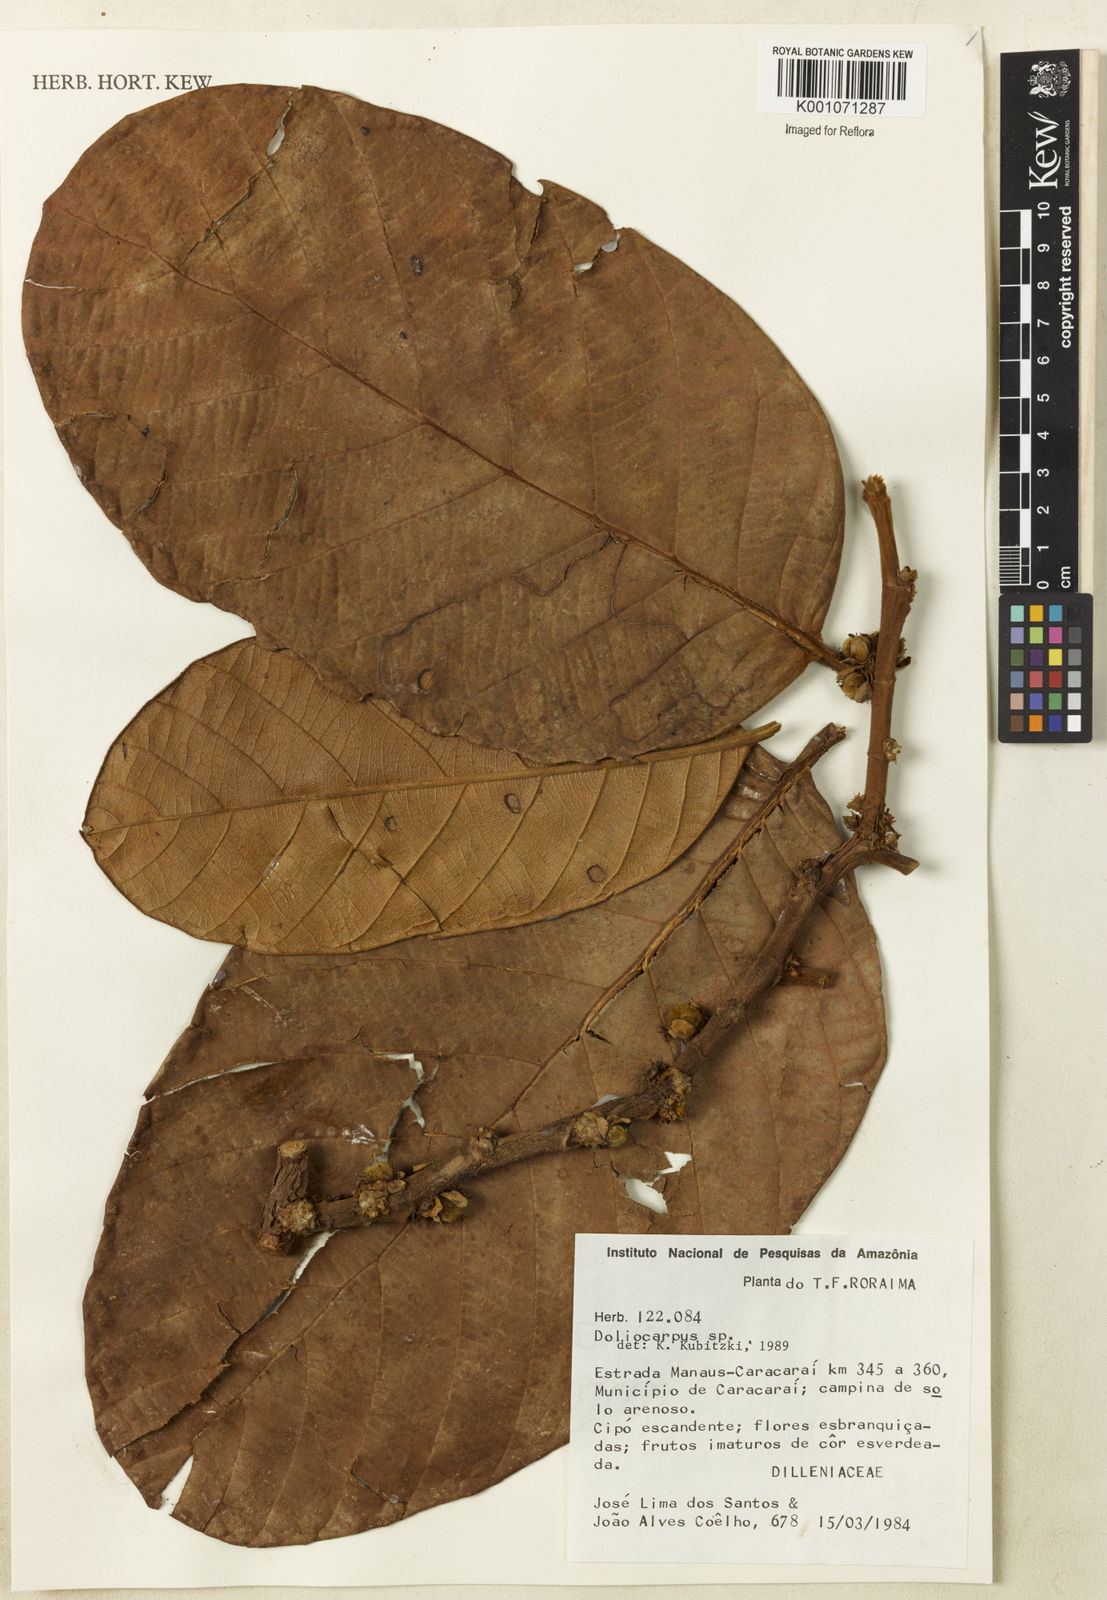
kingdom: Plantae
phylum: Tracheophyta
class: Magnoliopsida
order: Dilleniales
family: Dilleniaceae
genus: Doliocarpus
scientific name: Doliocarpus
